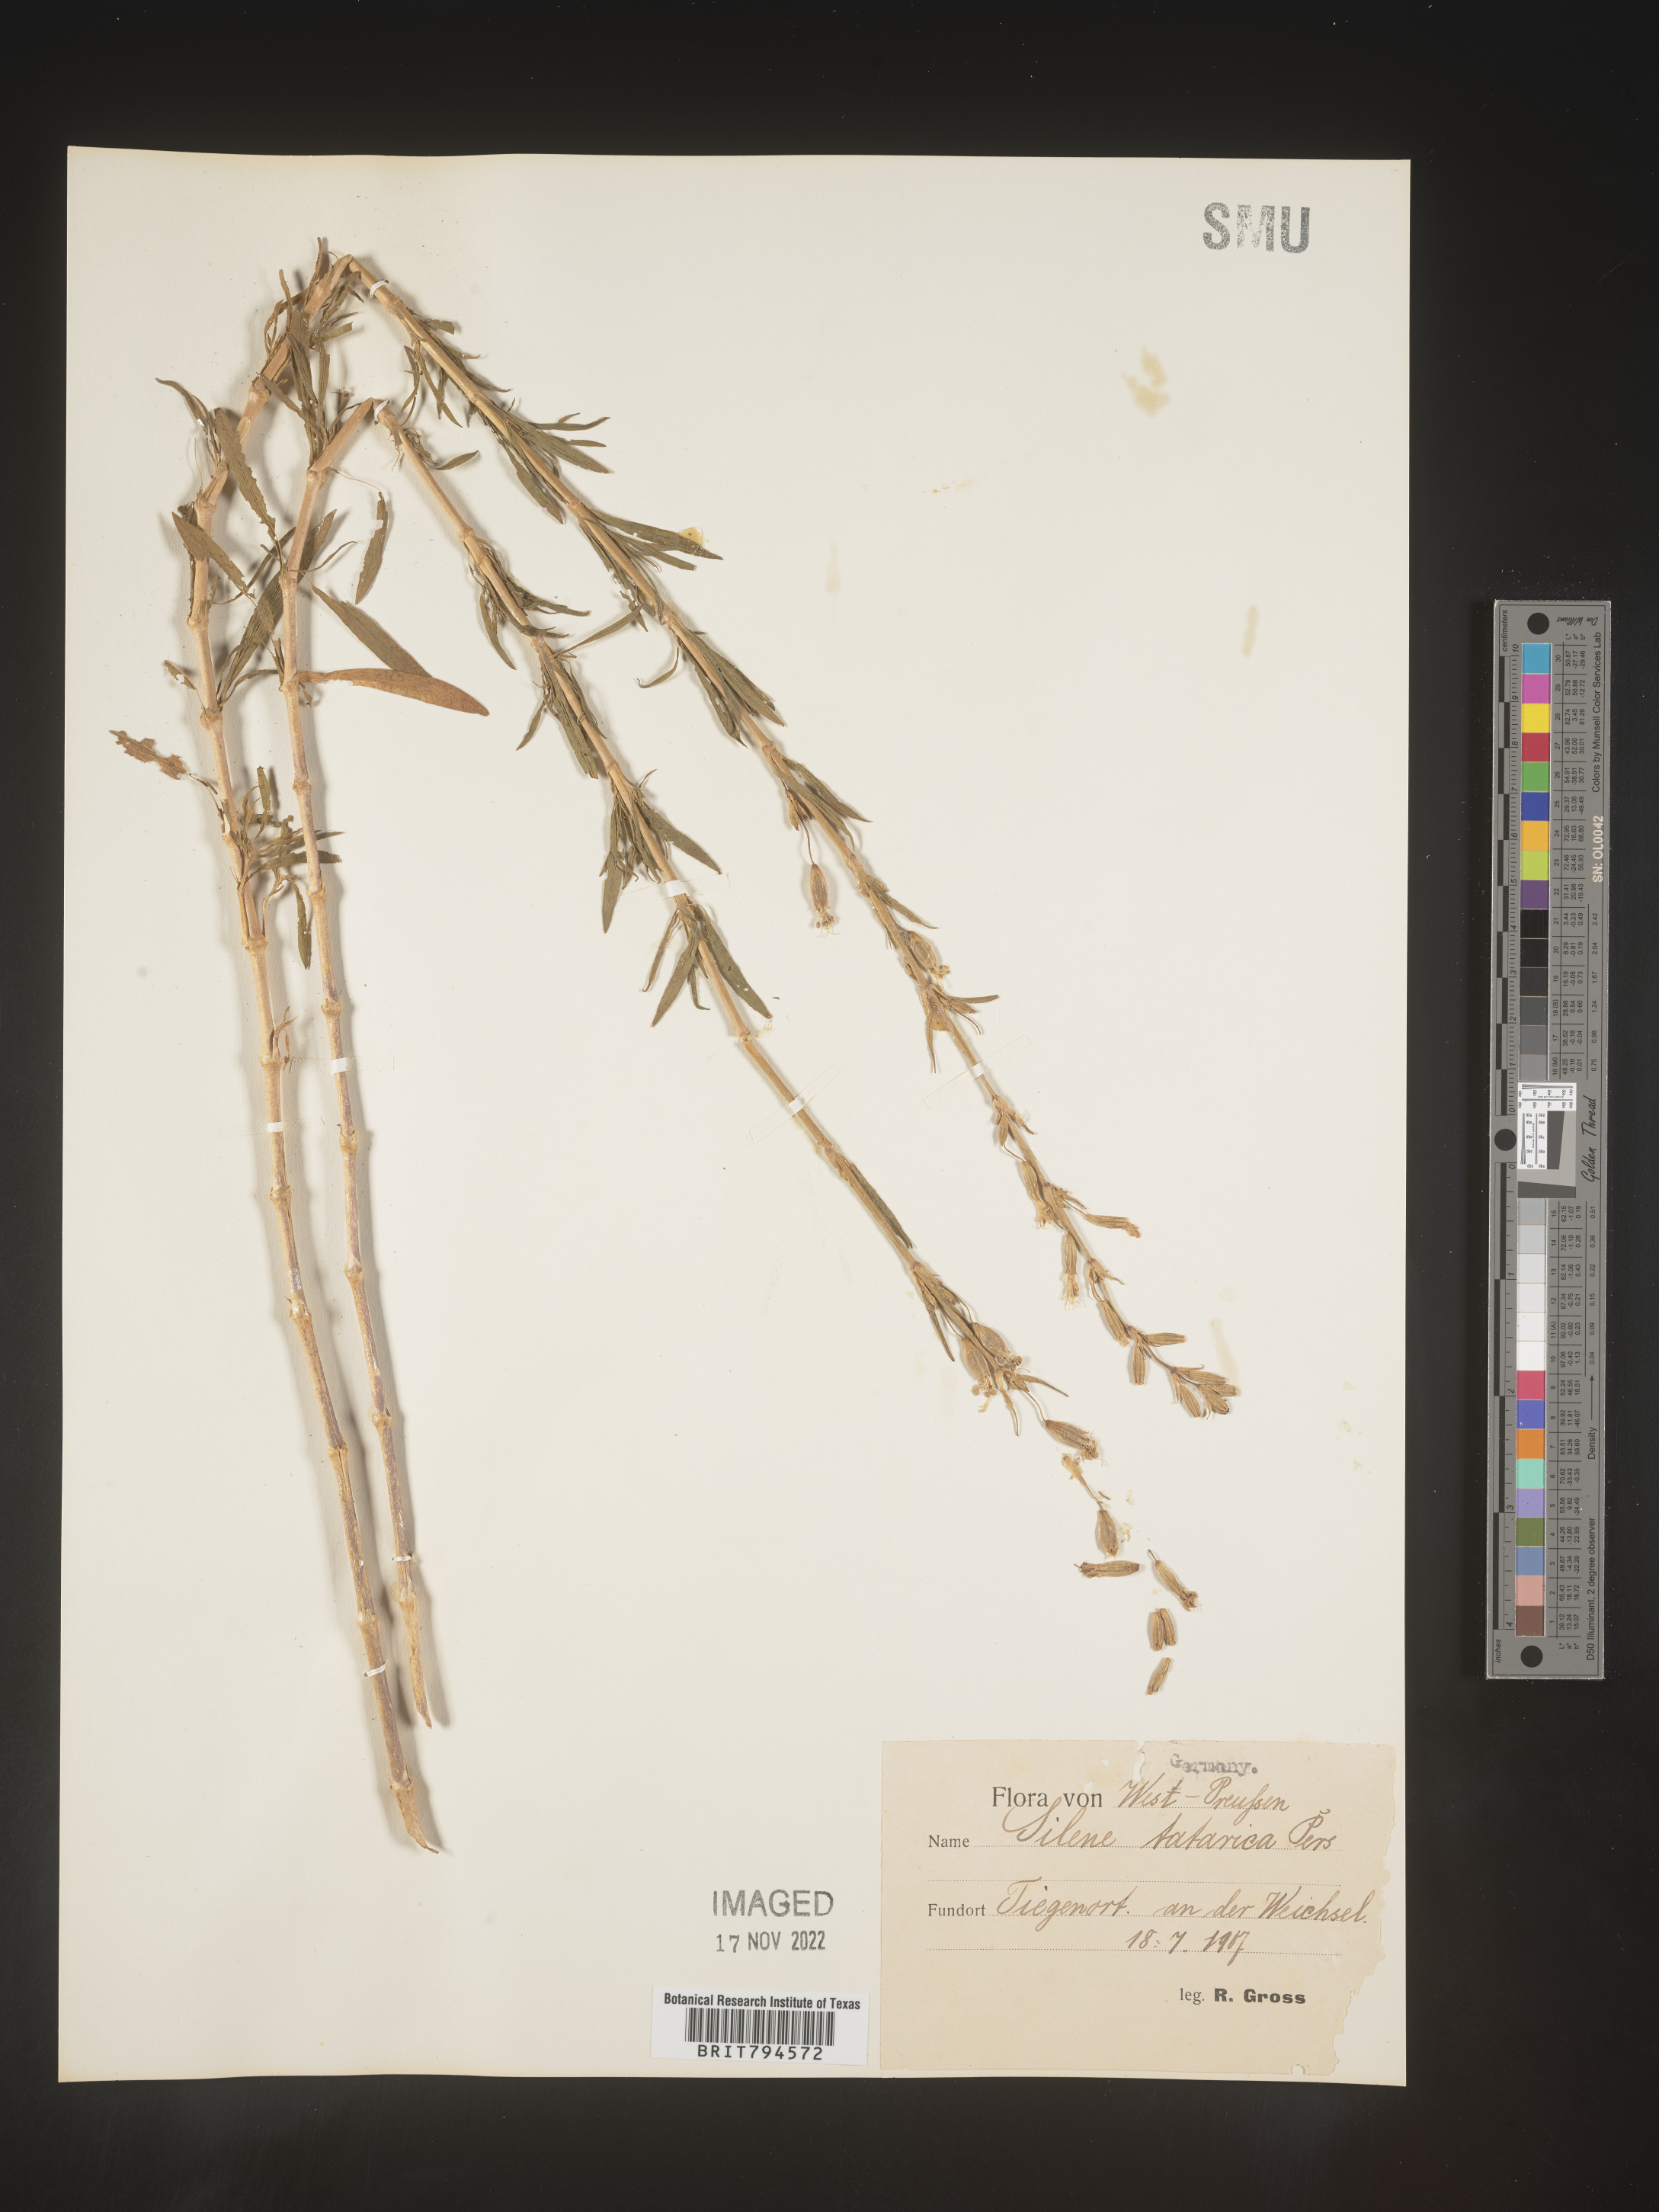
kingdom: Plantae
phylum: Tracheophyta
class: Magnoliopsida
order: Caryophyllales
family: Caryophyllaceae
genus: Silene
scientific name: Silene tatarica
